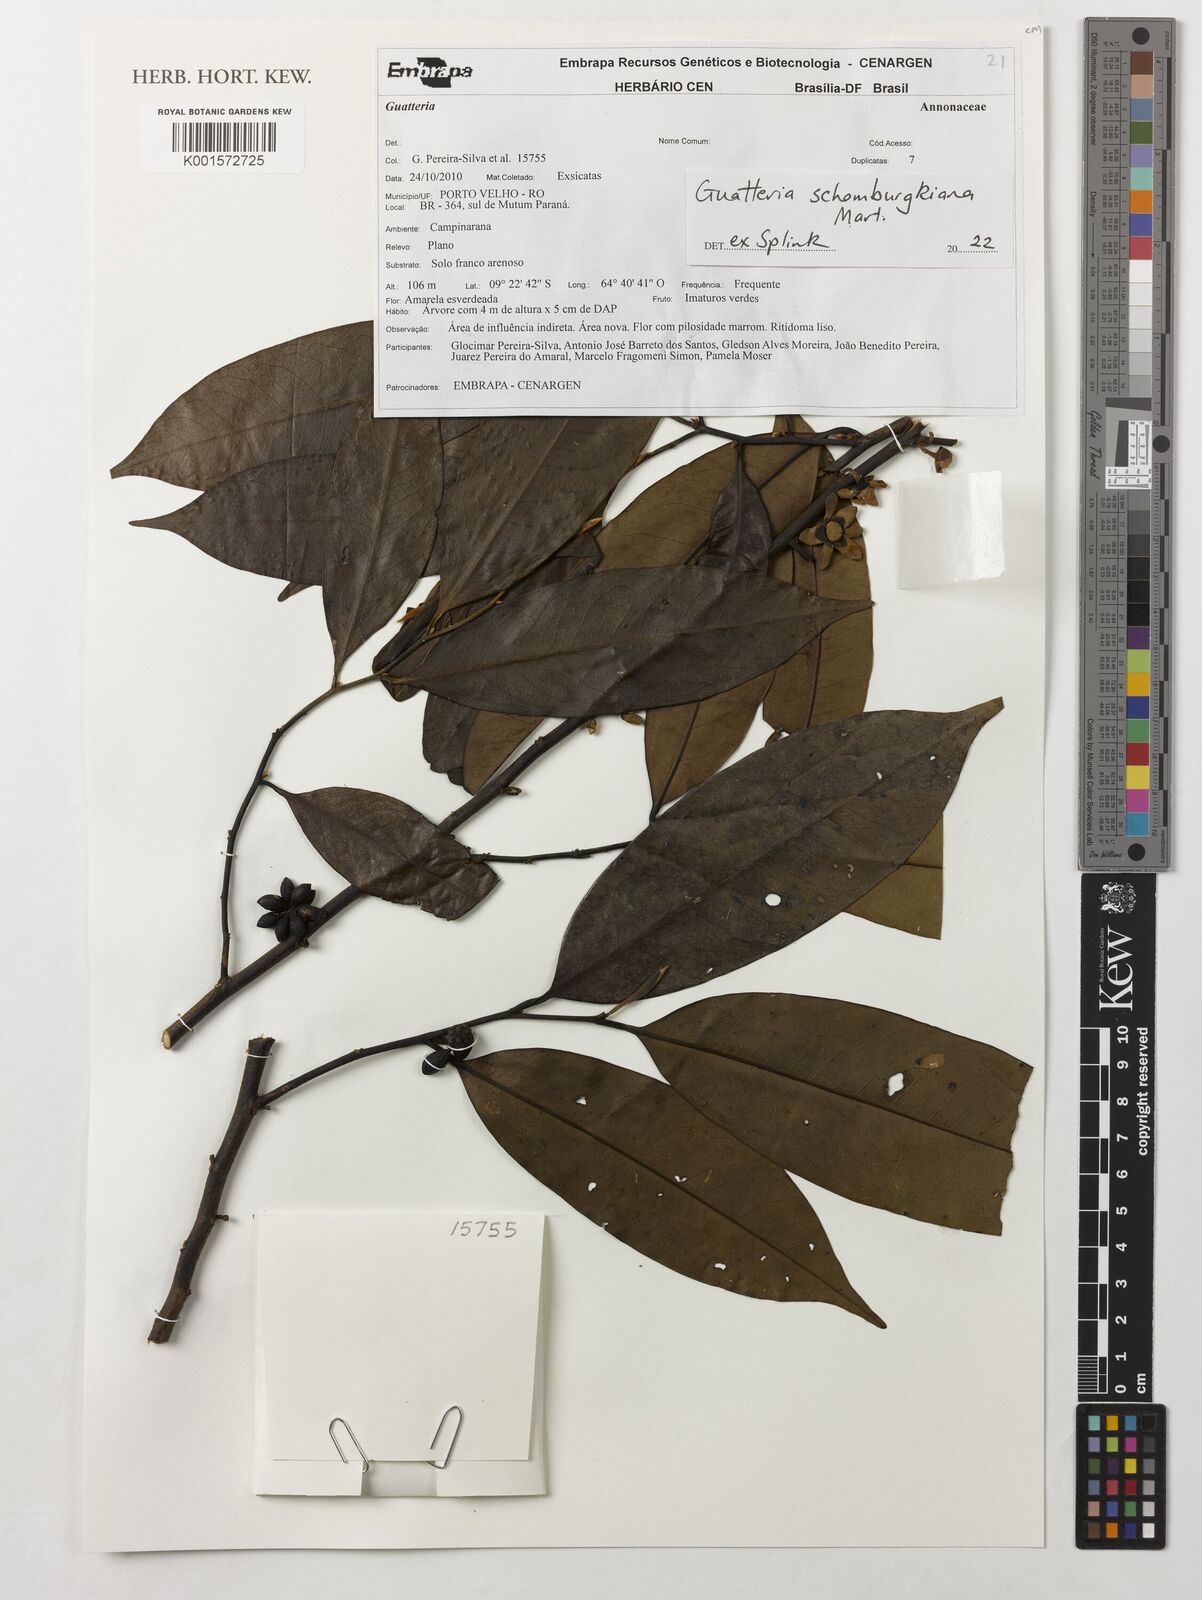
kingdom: Plantae
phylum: Tracheophyta
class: Magnoliopsida
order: Magnoliales
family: Annonaceae
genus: Guatteria
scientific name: Guatteria schomburgkiana
